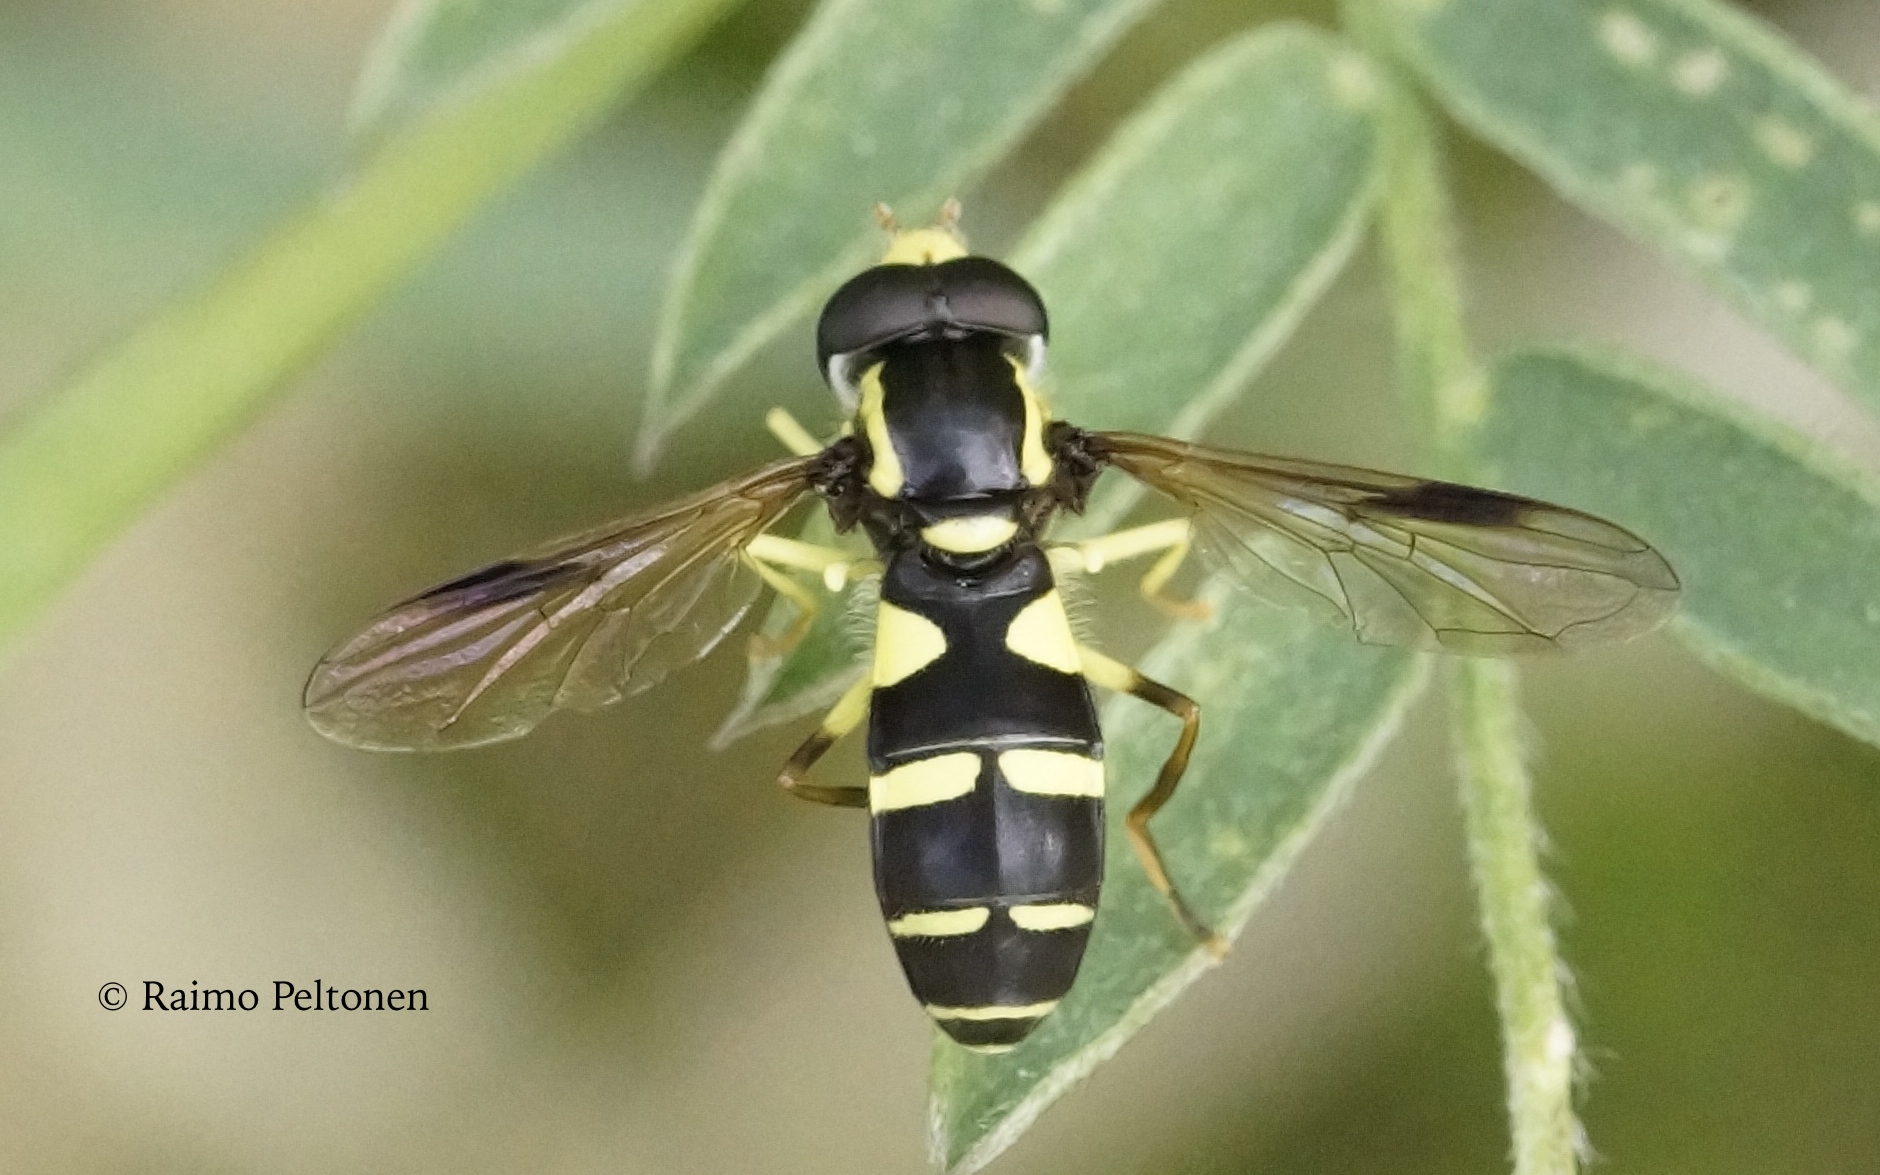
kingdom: Animalia
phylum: Arthropoda
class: Insecta
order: Diptera
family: Syrphidae
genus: Philhelius
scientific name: Philhelius pedissequum
